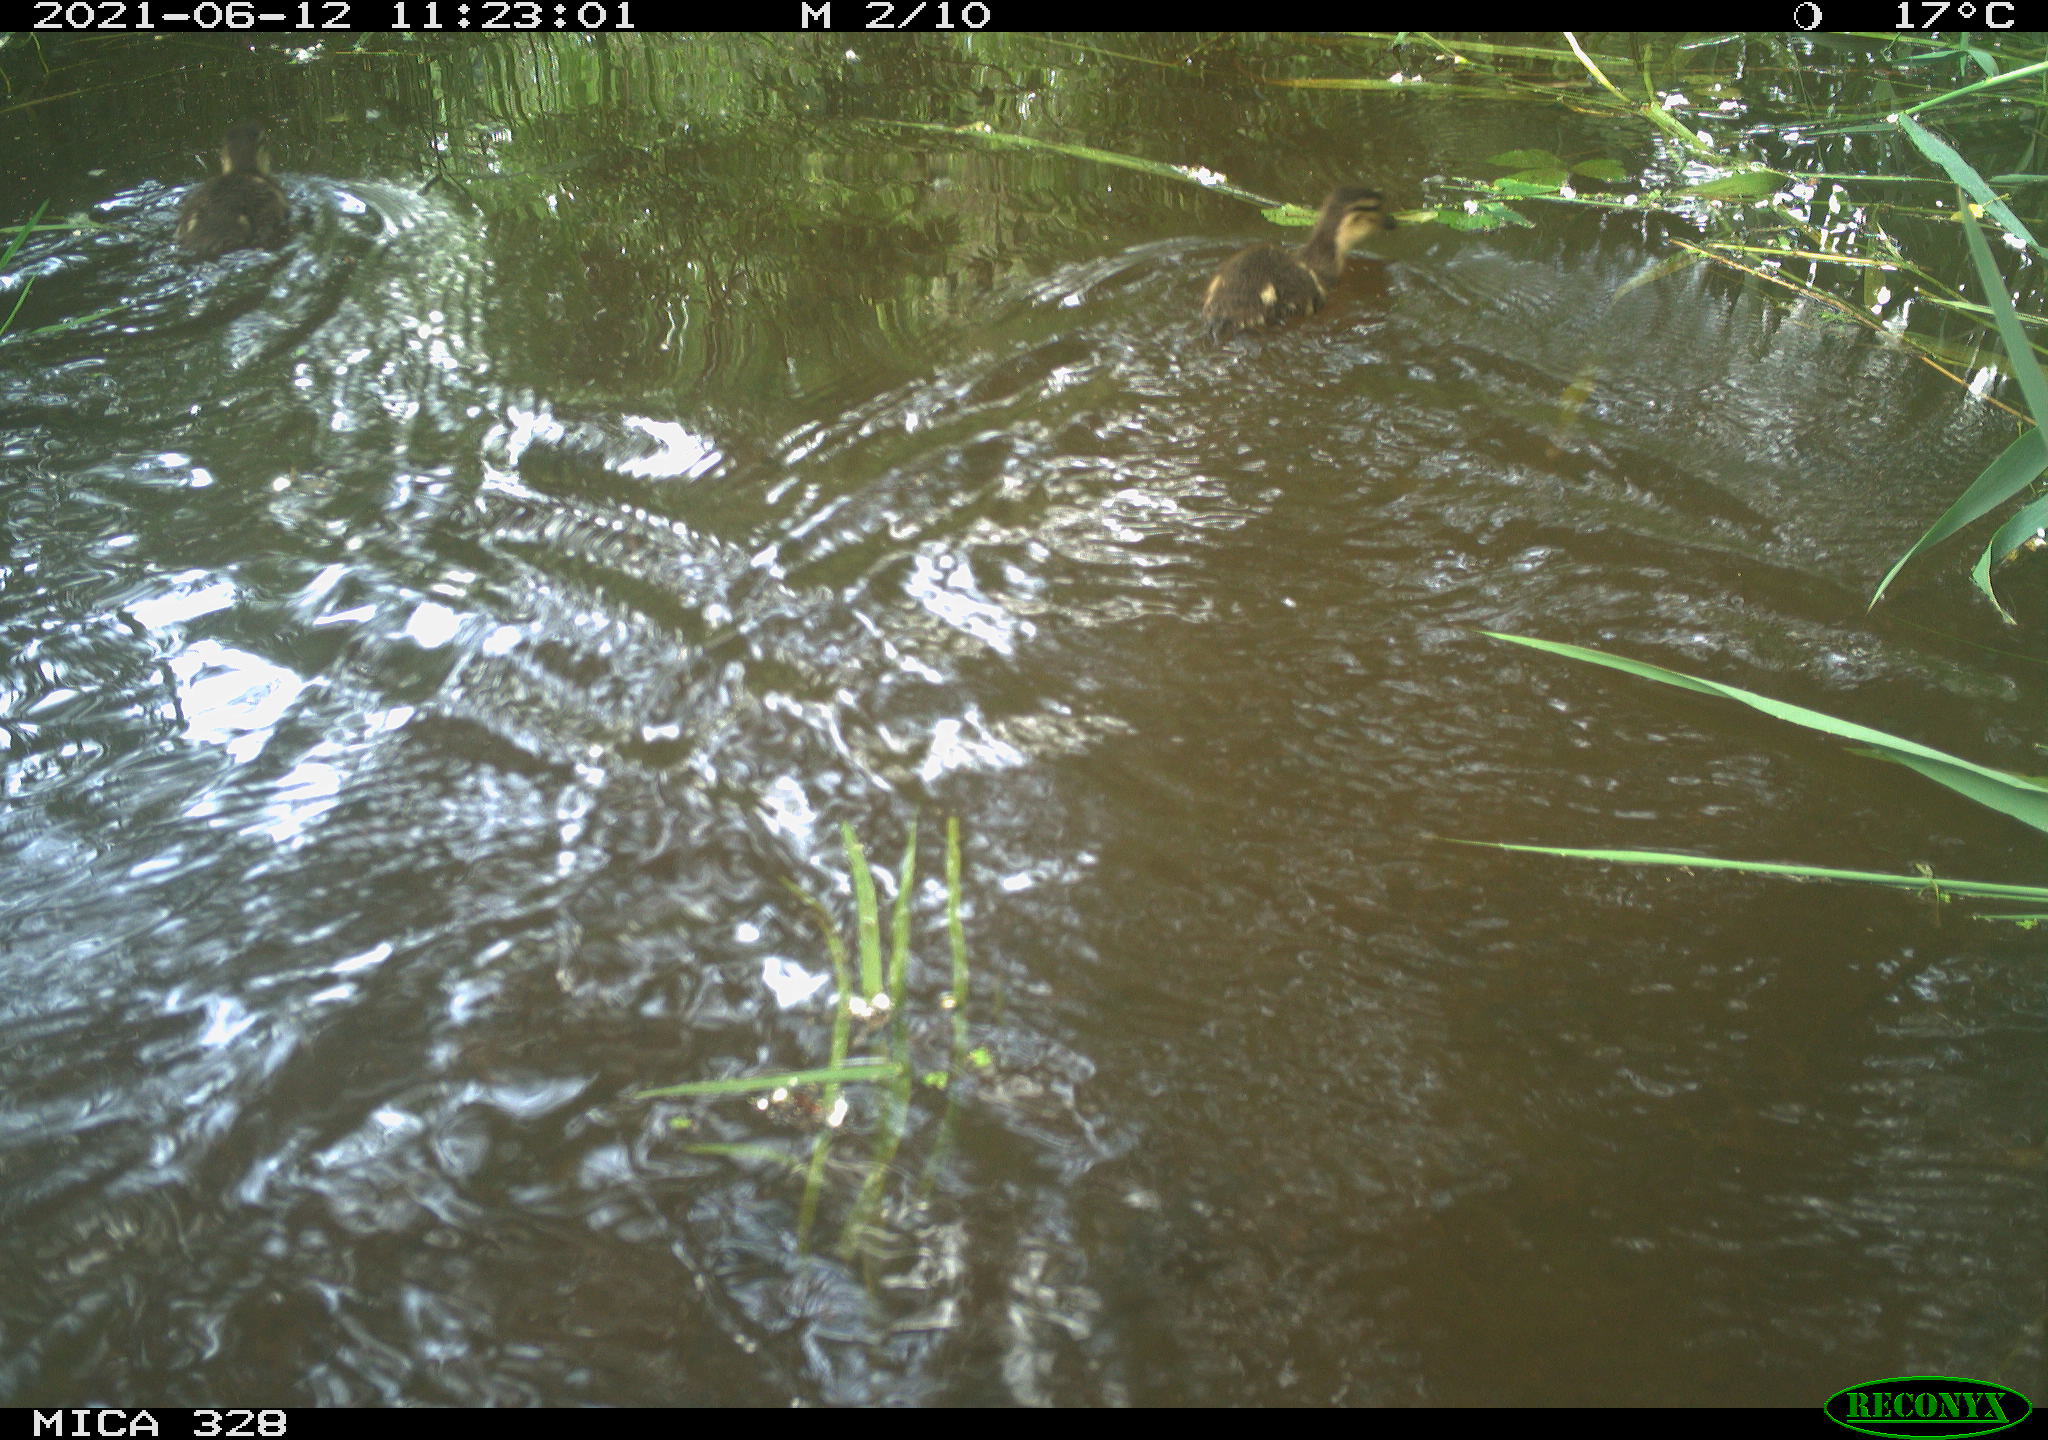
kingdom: Animalia
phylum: Chordata
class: Aves
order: Anseriformes
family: Anatidae
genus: Aix
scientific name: Aix galericulata
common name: Mandarin duck
